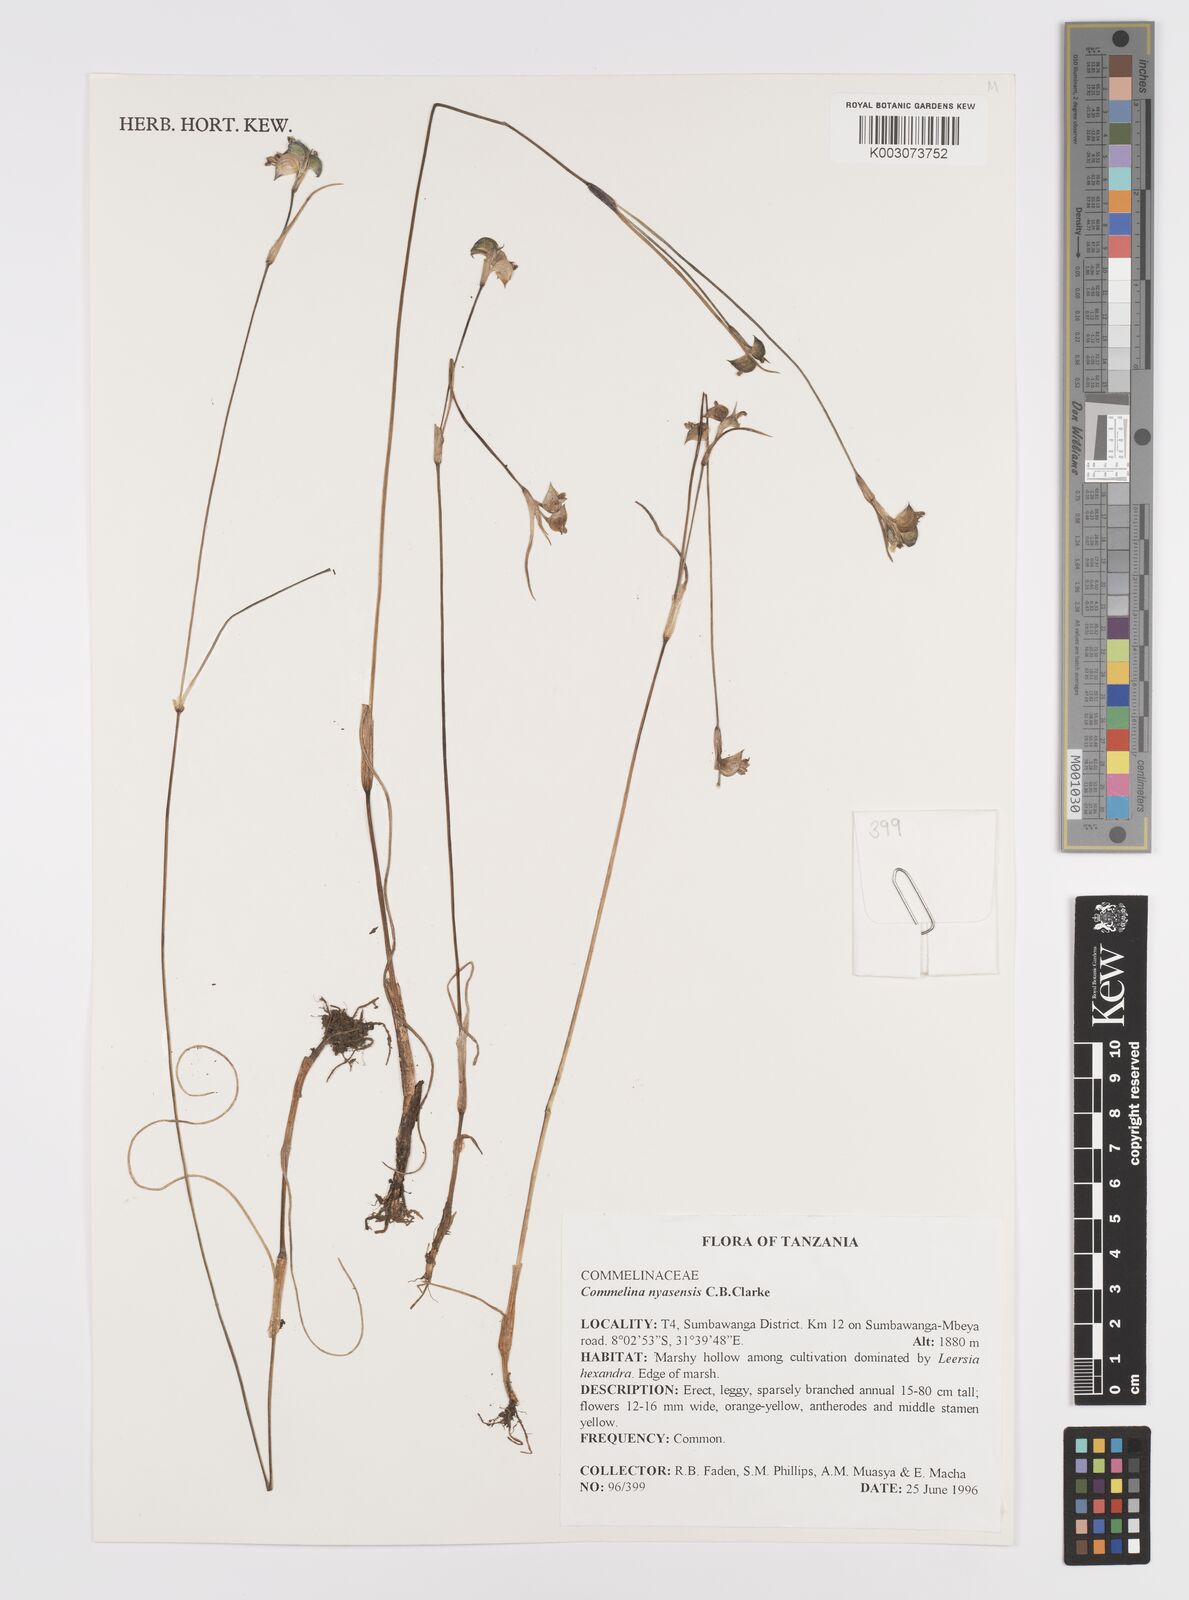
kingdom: Plantae
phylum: Tracheophyta
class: Liliopsida
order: Commelinales
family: Commelinaceae
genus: Commelina
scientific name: Commelina nyasensis
